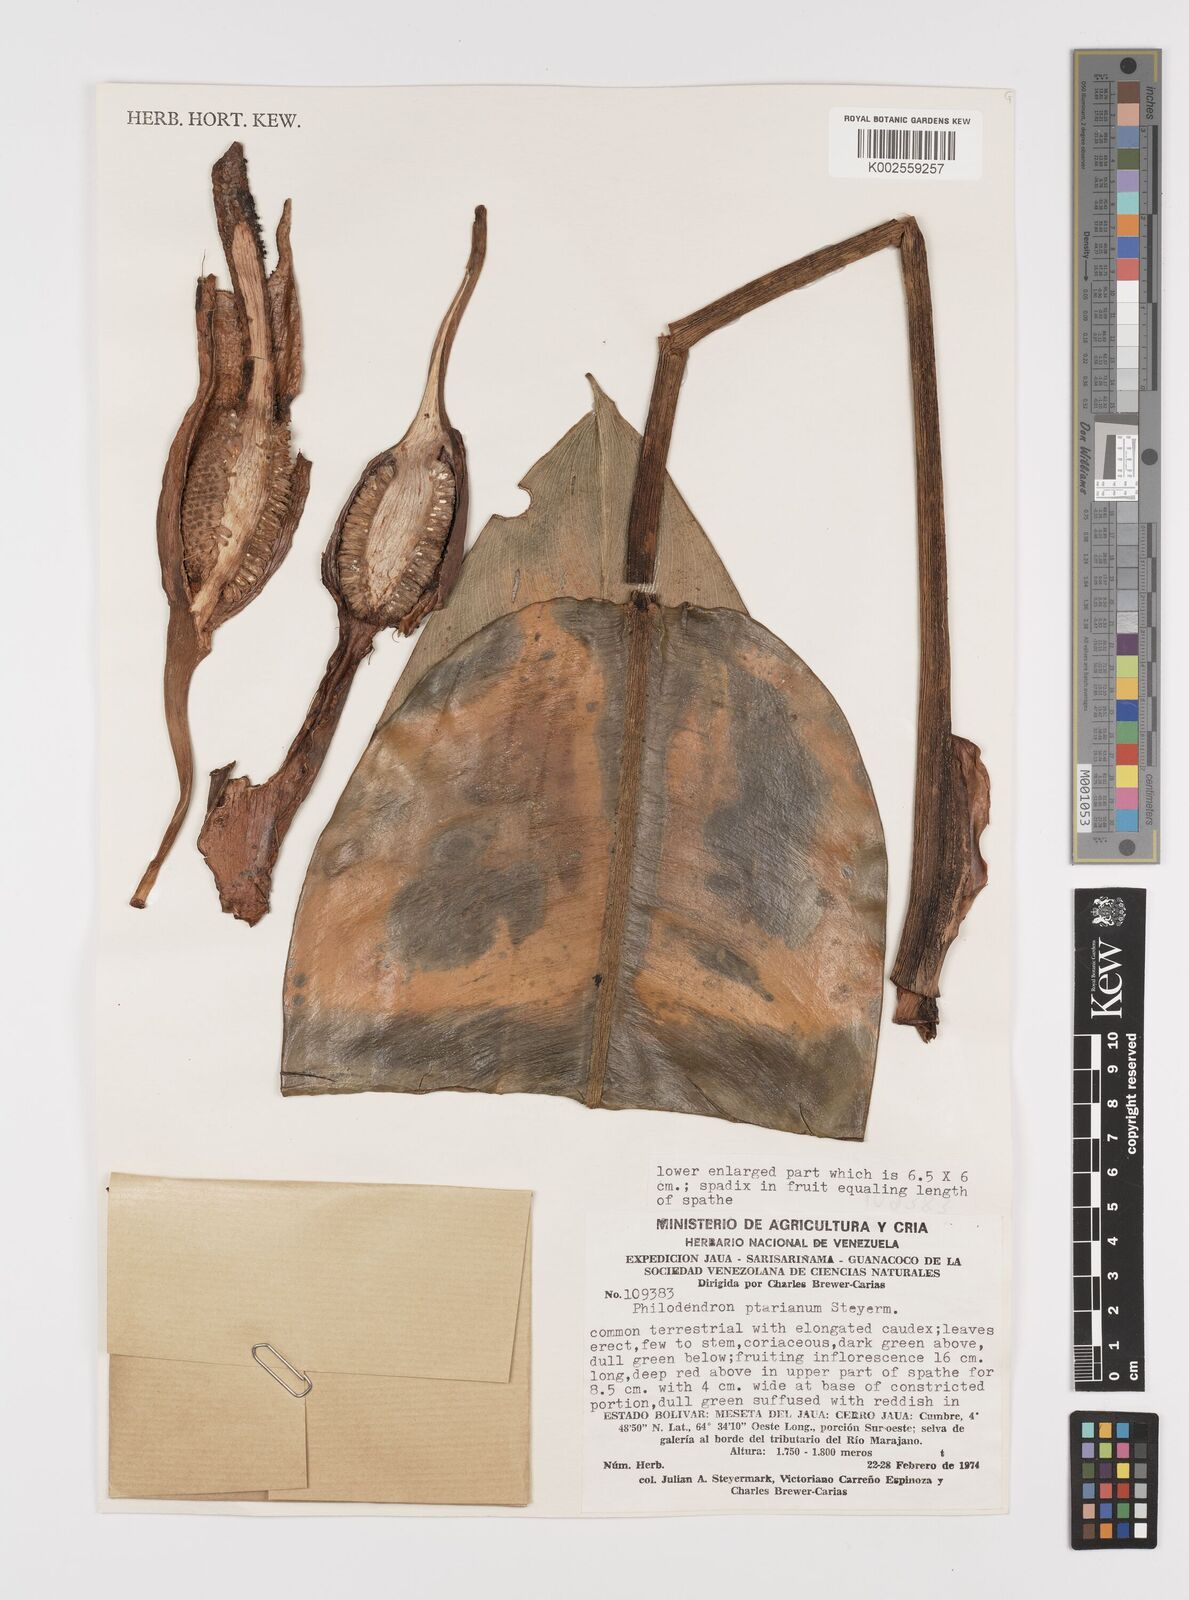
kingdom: Plantae
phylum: Tracheophyta
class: Liliopsida
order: Alismatales
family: Araceae
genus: Philodendron
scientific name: Philodendron callosum
